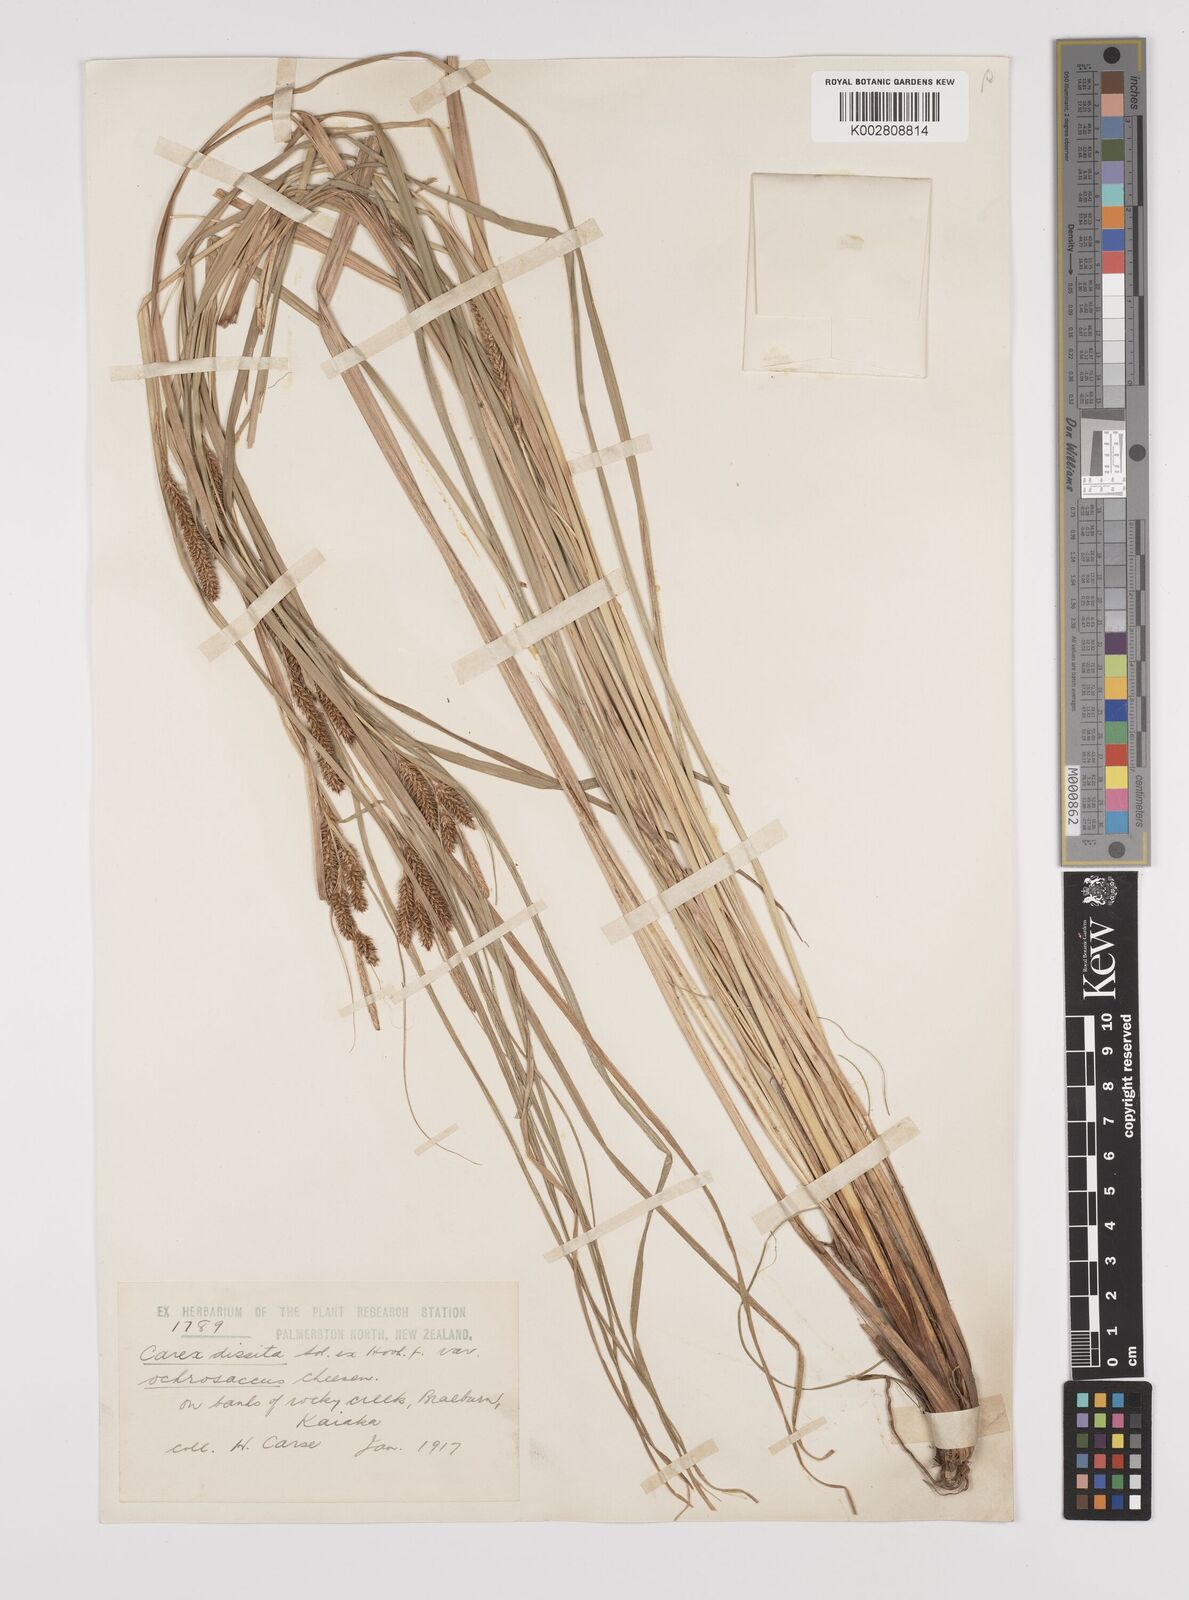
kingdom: Plantae
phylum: Tracheophyta
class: Liliopsida
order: Poales
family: Cyperaceae
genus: Carex
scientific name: Carex ochrosaccus
